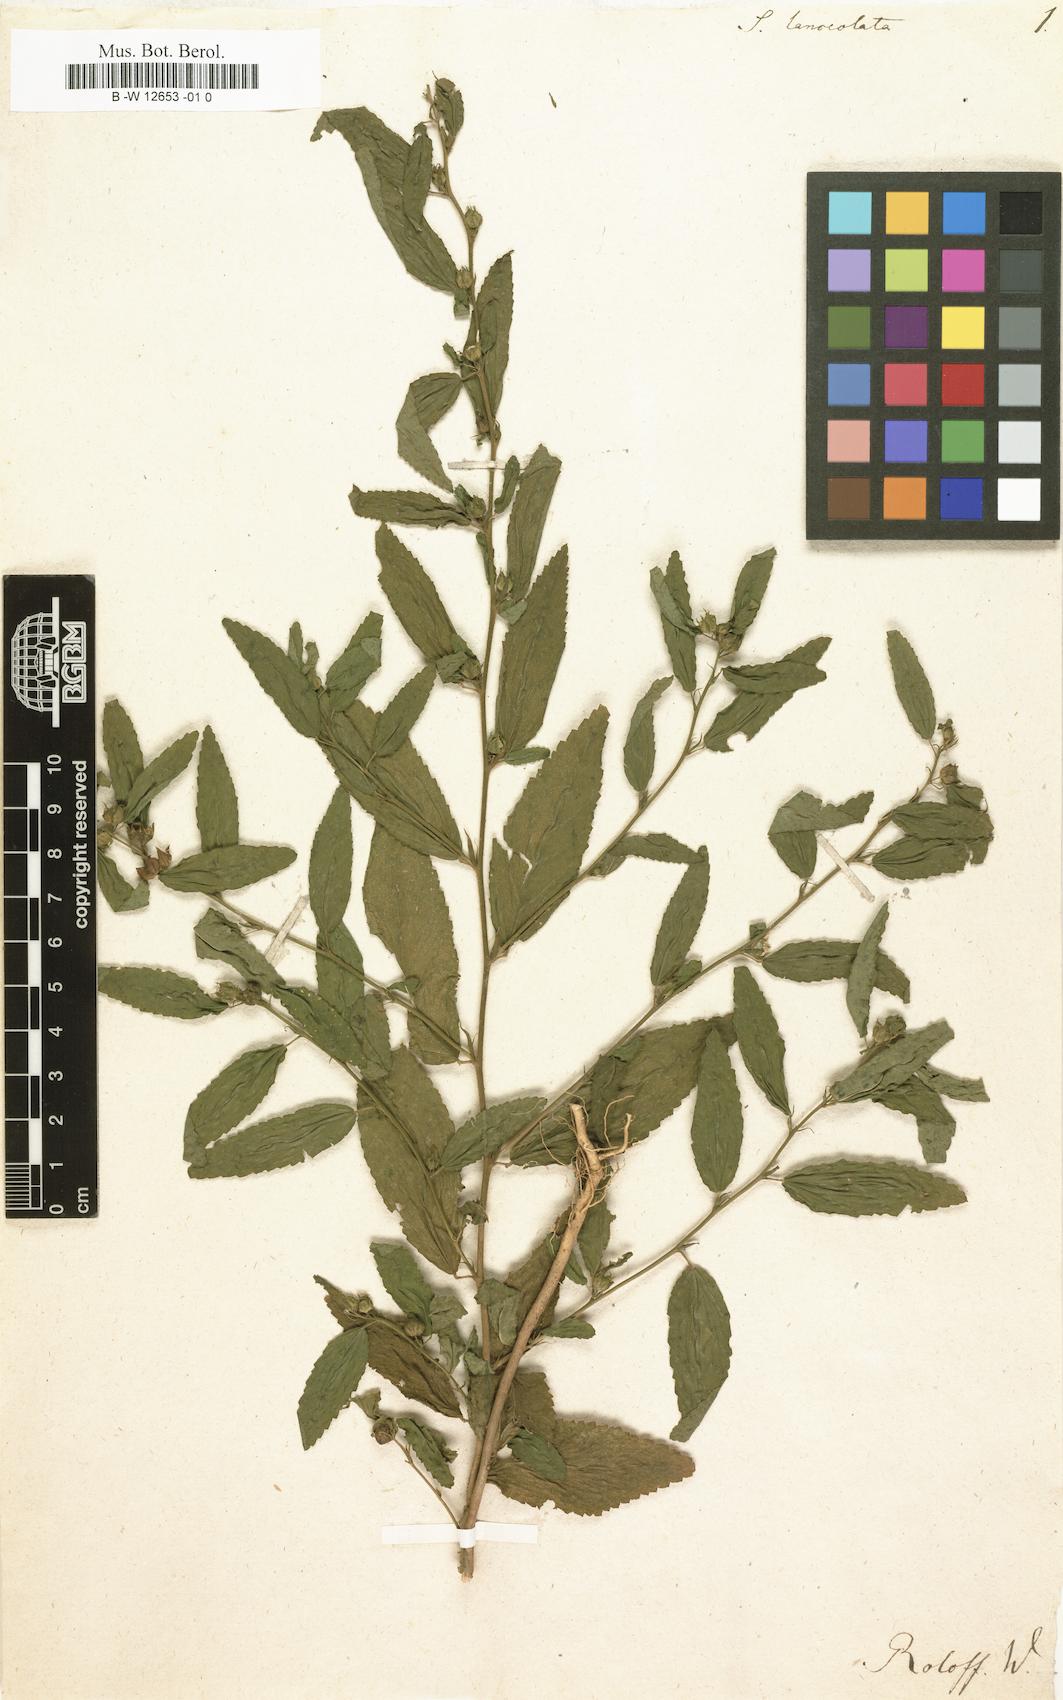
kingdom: Plantae
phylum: Tracheophyta
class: Magnoliopsida
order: Malvales
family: Malvaceae
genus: Sida
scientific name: Sida
